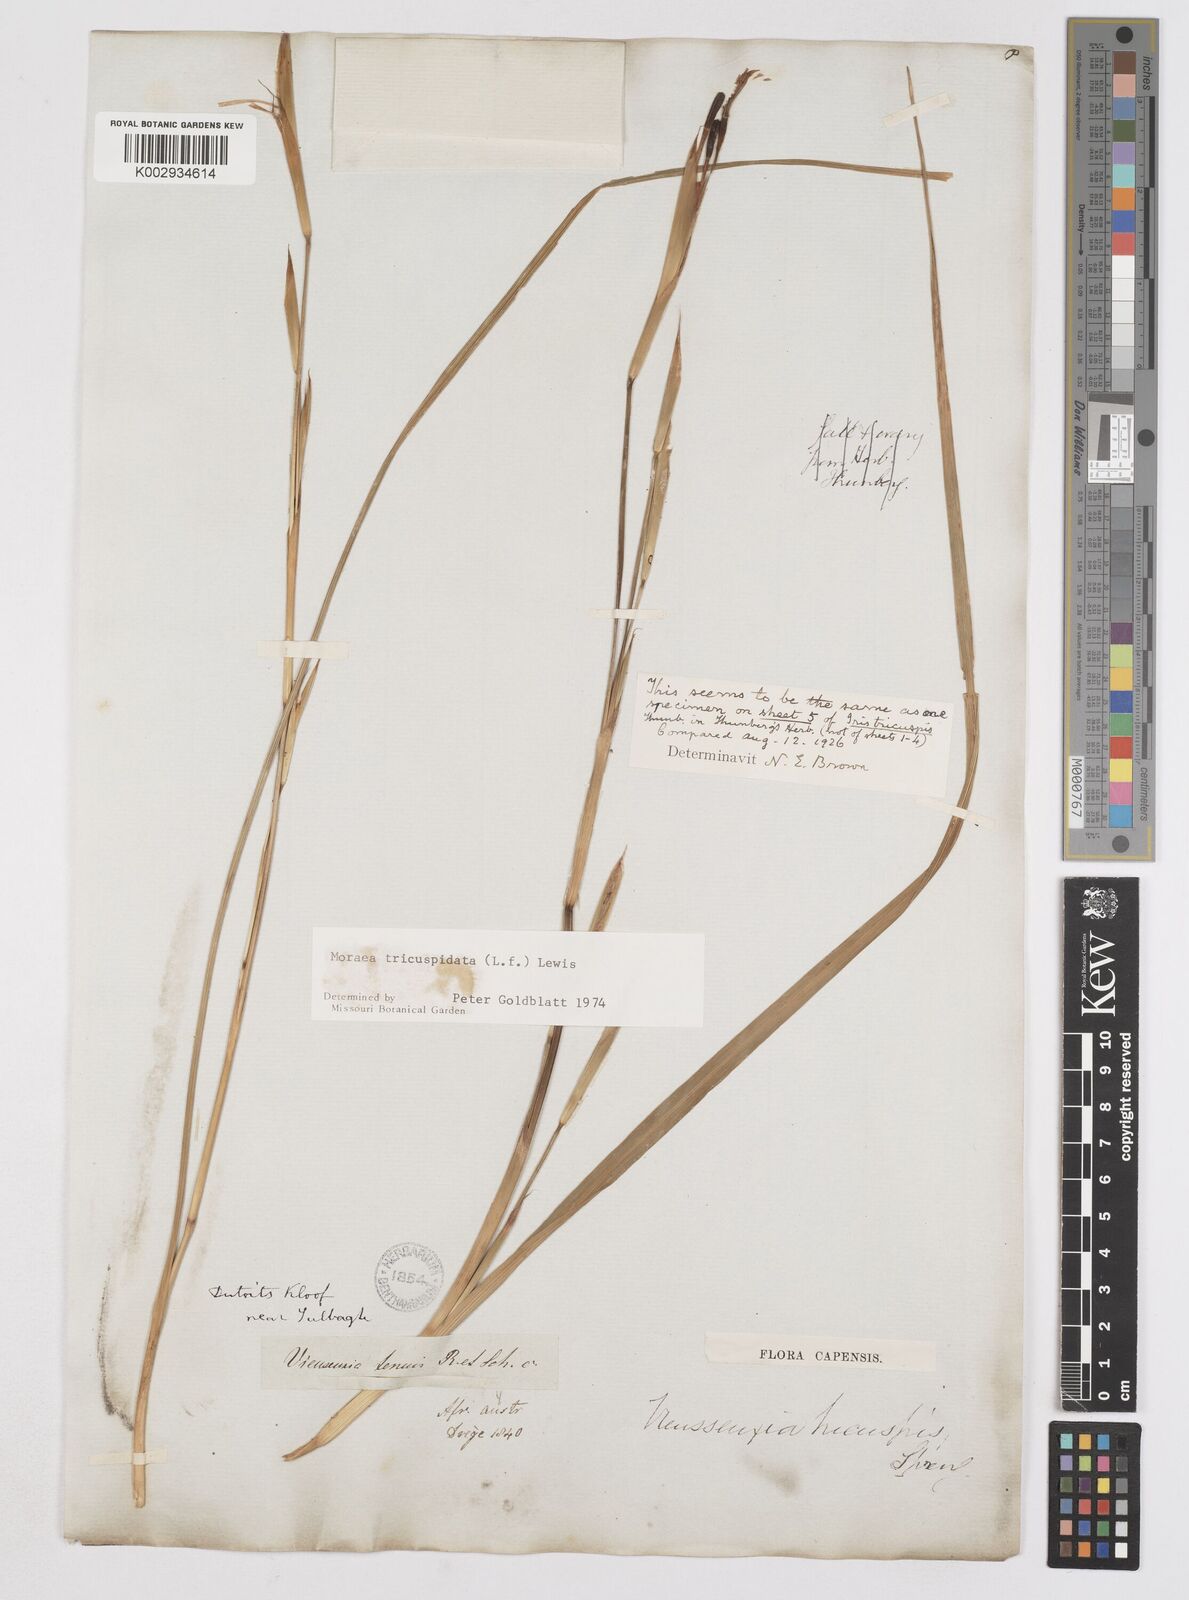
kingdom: Plantae
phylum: Tracheophyta
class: Liliopsida
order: Asparagales
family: Iridaceae
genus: Moraea
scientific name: Moraea tricuspidata
